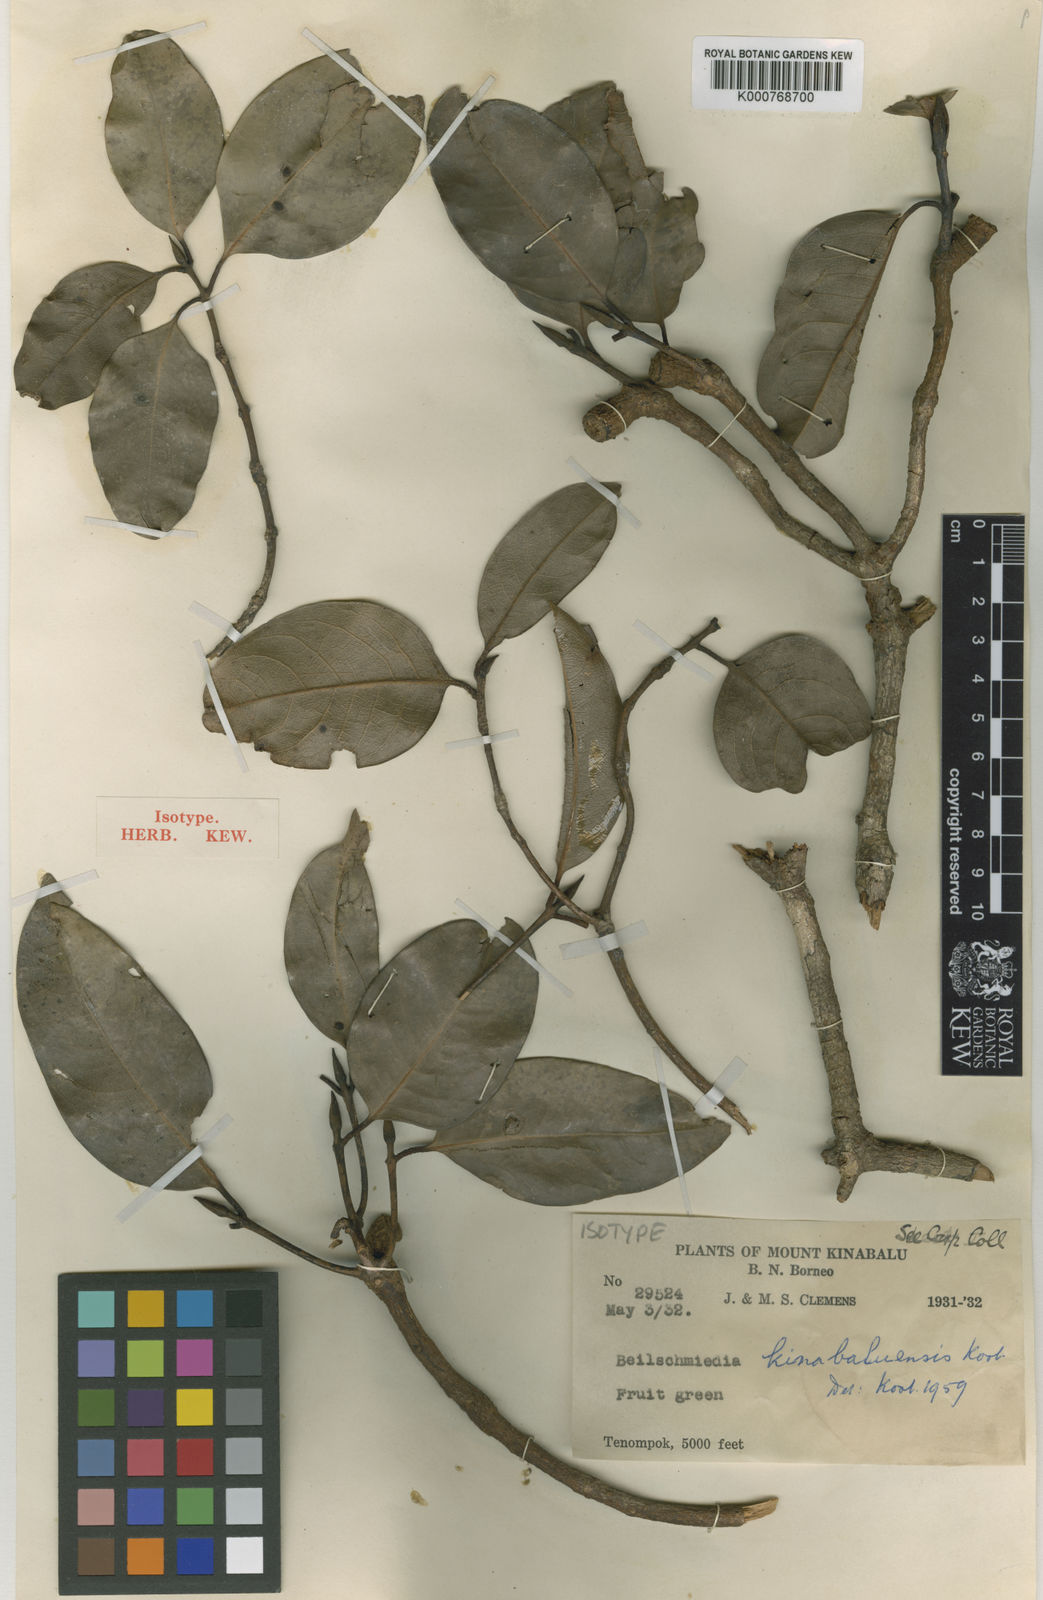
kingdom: Plantae
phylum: Tracheophyta
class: Magnoliopsida
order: Laurales
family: Lauraceae
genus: Beilschmiedia
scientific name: Beilschmiedia kinabaluensis
